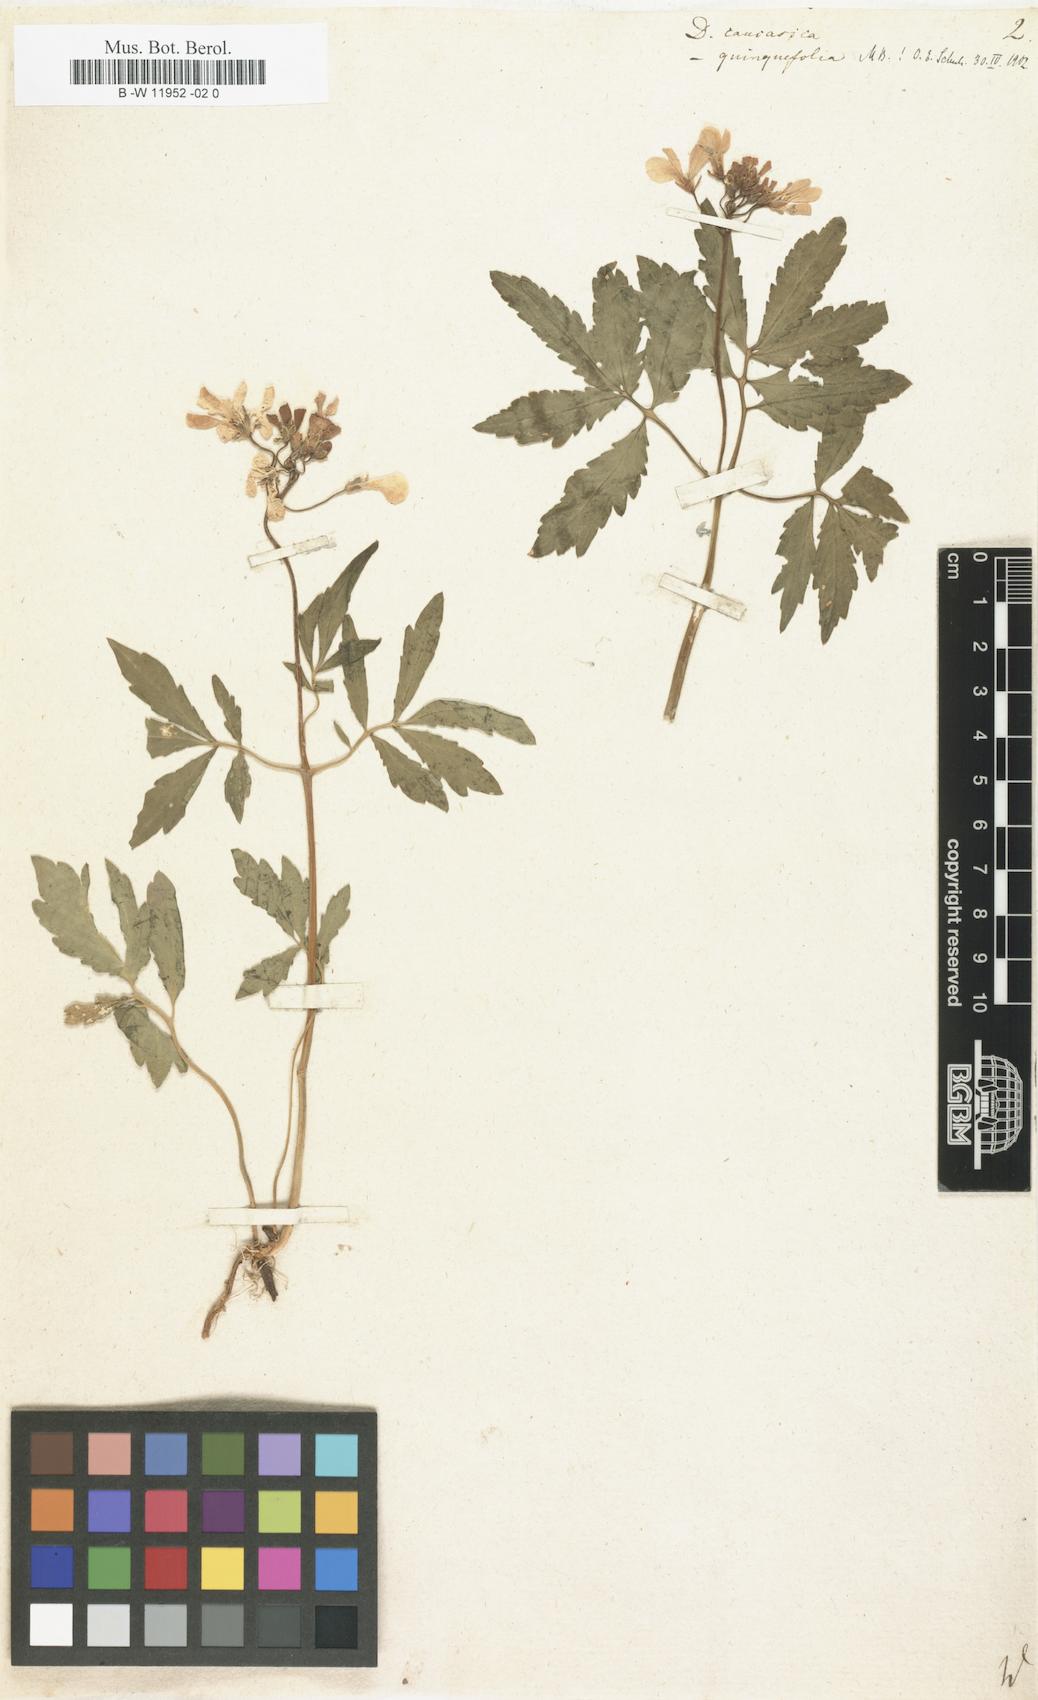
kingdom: Plantae
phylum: Tracheophyta
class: Magnoliopsida
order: Brassicales
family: Brassicaceae
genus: Cardamine
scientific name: Cardamine uliginosa
